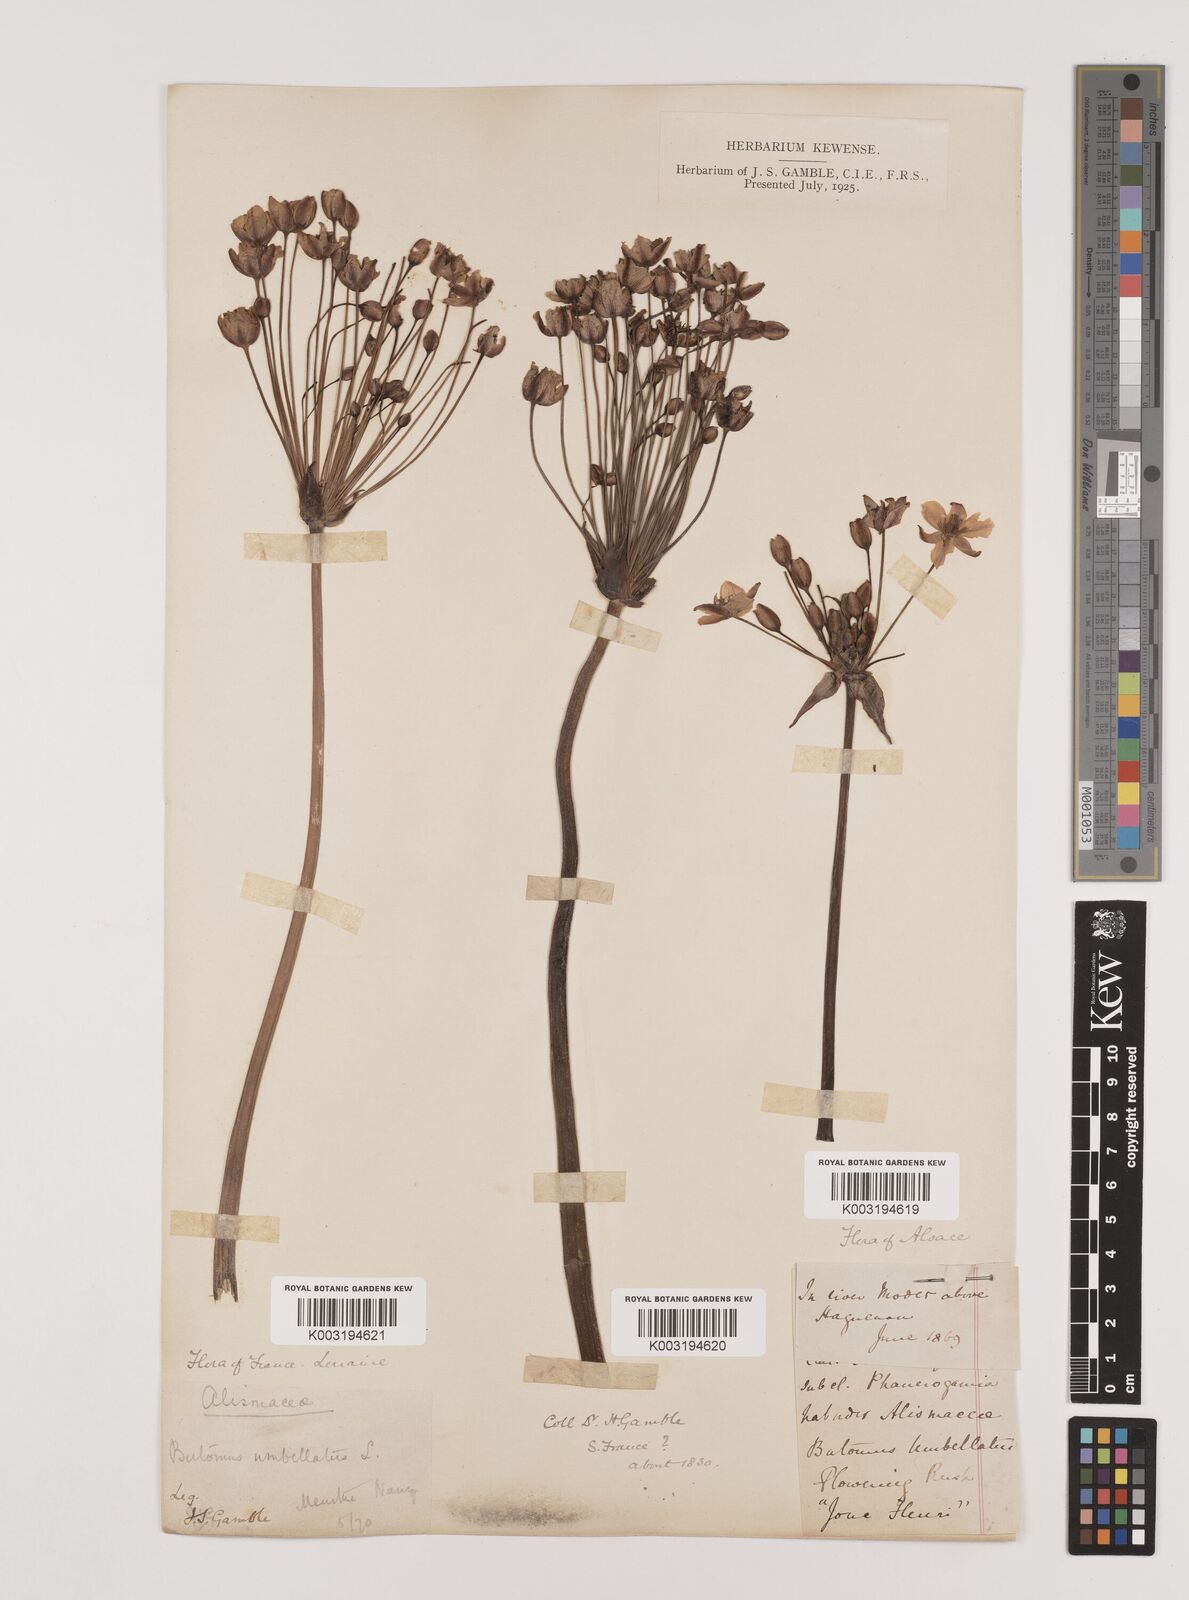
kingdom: Plantae
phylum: Tracheophyta
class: Liliopsida
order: Alismatales
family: Butomaceae
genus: Butomus
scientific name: Butomus umbellatus
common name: Flowering-rush
